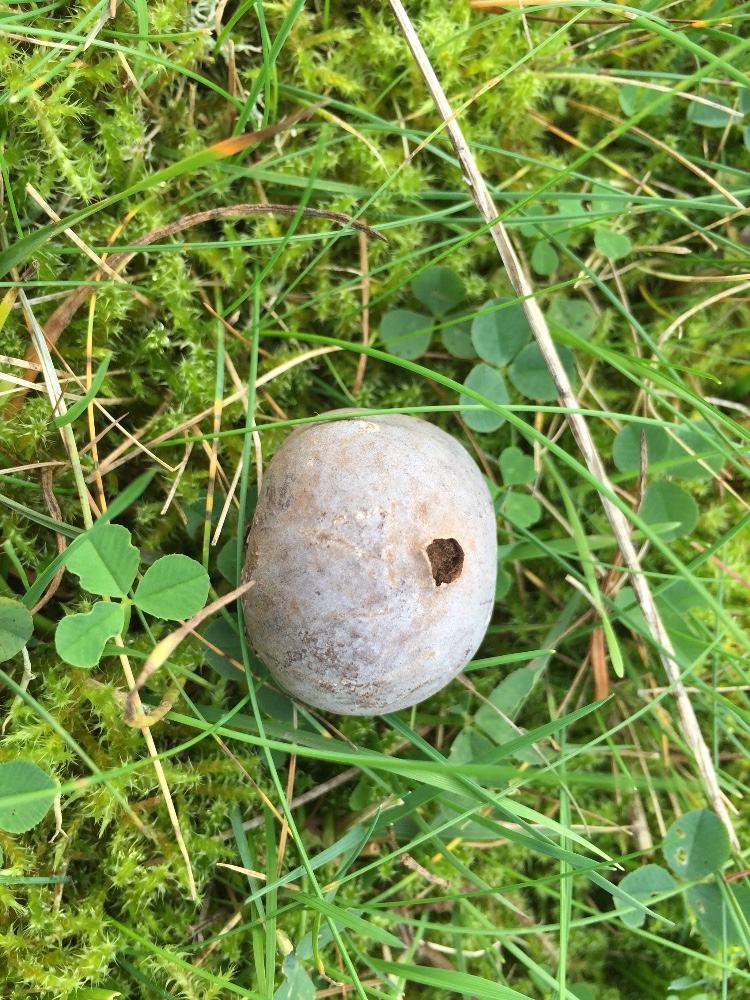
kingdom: Fungi
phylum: Basidiomycota
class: Agaricomycetes
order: Agaricales
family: Lycoperdaceae
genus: Bovista
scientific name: Bovista plumbea
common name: blygrå bovist
